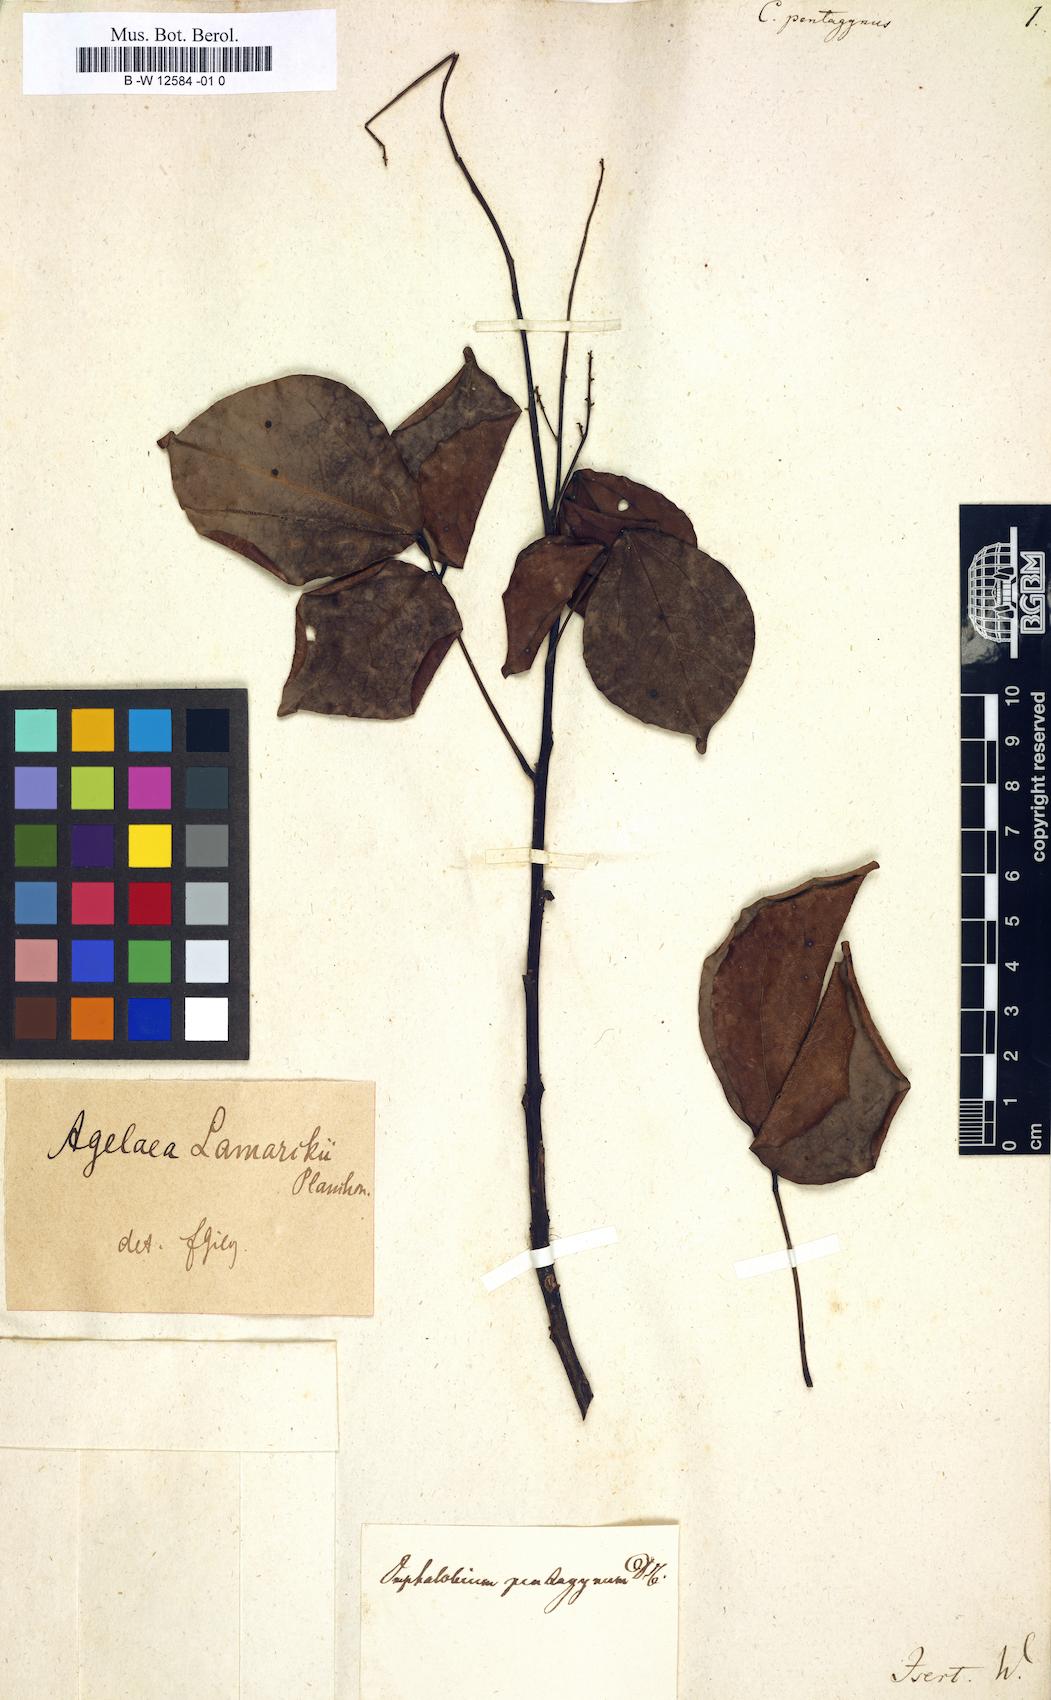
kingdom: Plantae
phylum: Tracheophyta
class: Magnoliopsida
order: Oxalidales
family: Connaraceae
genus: Agelaea
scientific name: Agelaea pentagyna
